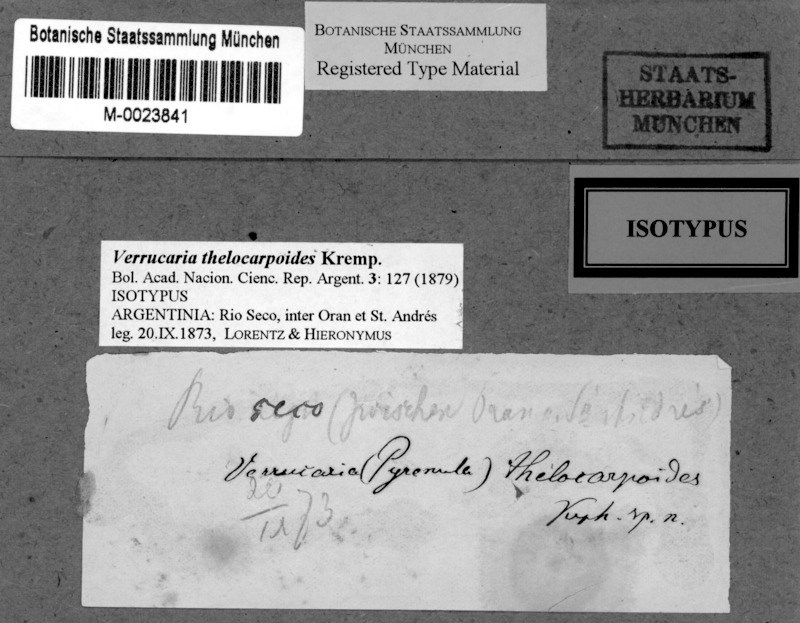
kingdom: Fungi
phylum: Ascomycota
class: Lecanoromycetes
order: Ostropales
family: Thelenellaceae
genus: Polyblastiopsis
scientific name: Polyblastiopsis
